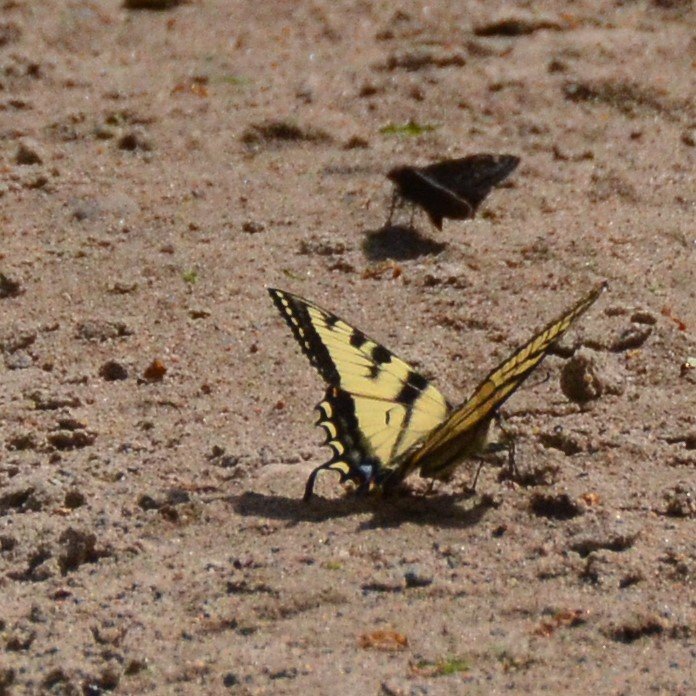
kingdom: Animalia
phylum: Arthropoda
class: Insecta
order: Lepidoptera
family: Papilionidae
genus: Pterourus
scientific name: Pterourus canadensis
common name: Canadian Tiger Swallowtail
